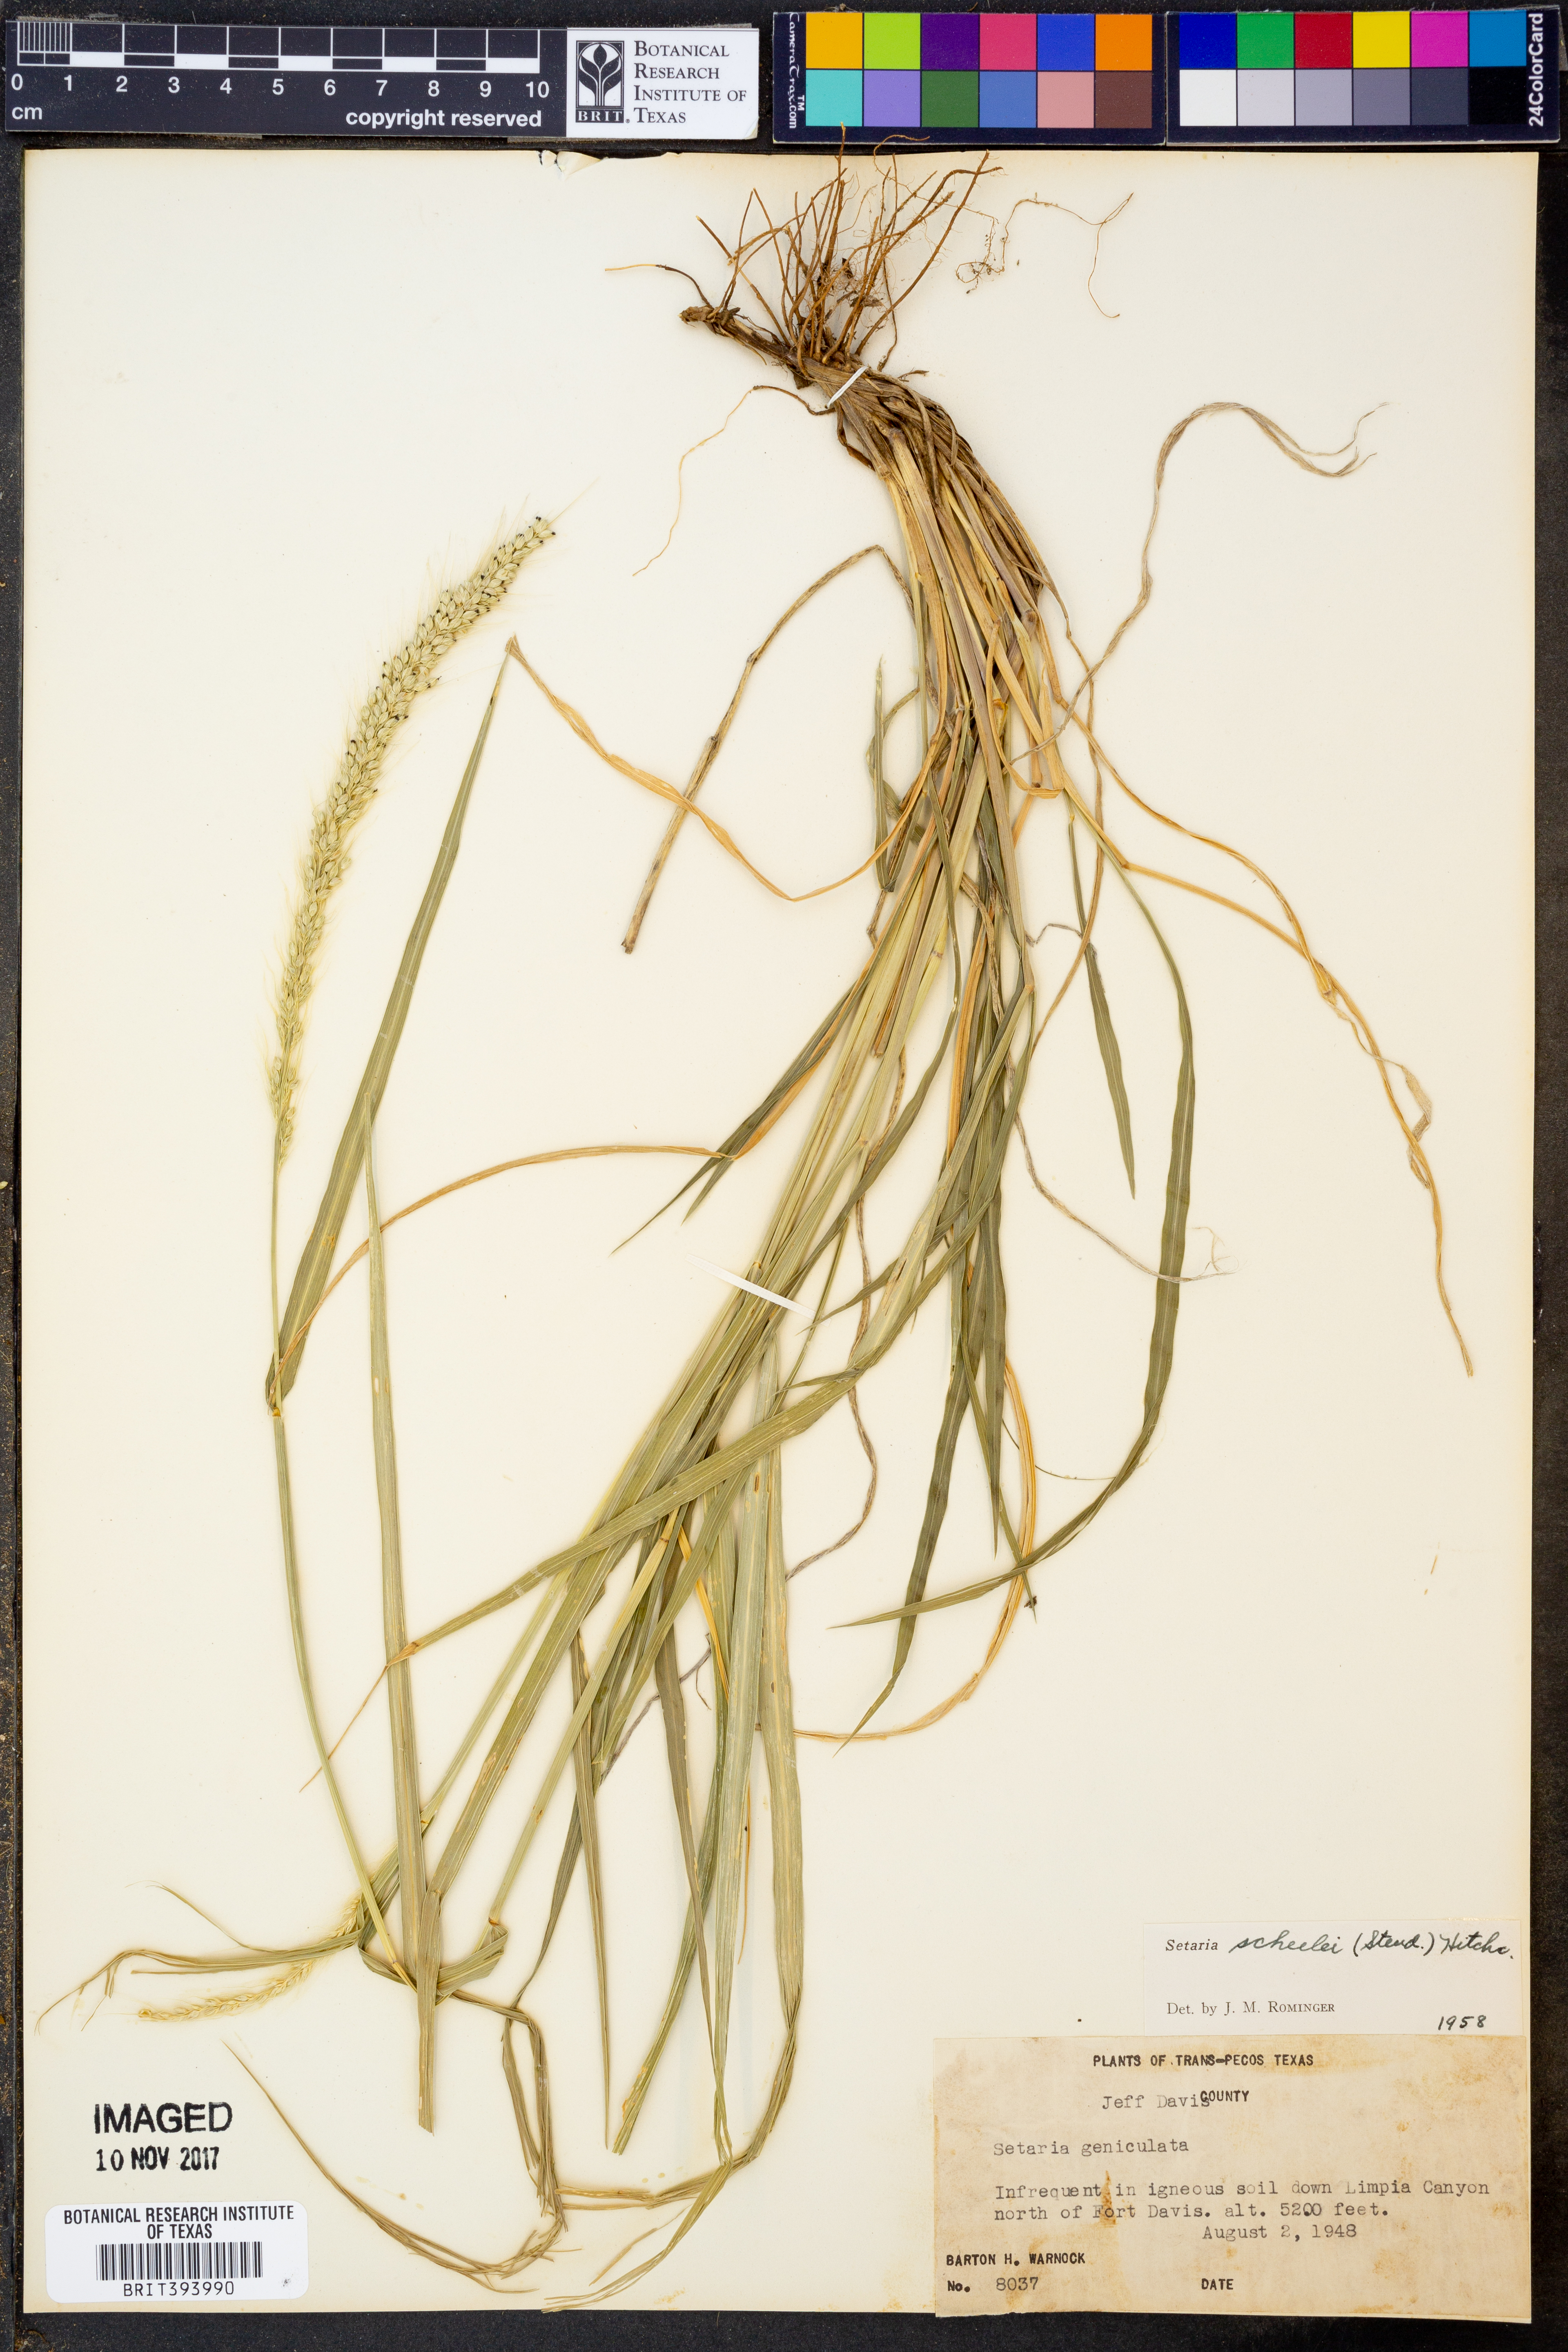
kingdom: Plantae
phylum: Tracheophyta
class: Liliopsida
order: Poales
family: Poaceae
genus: Setaria
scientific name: Setaria scheelei
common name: Southwestern bristle grass
